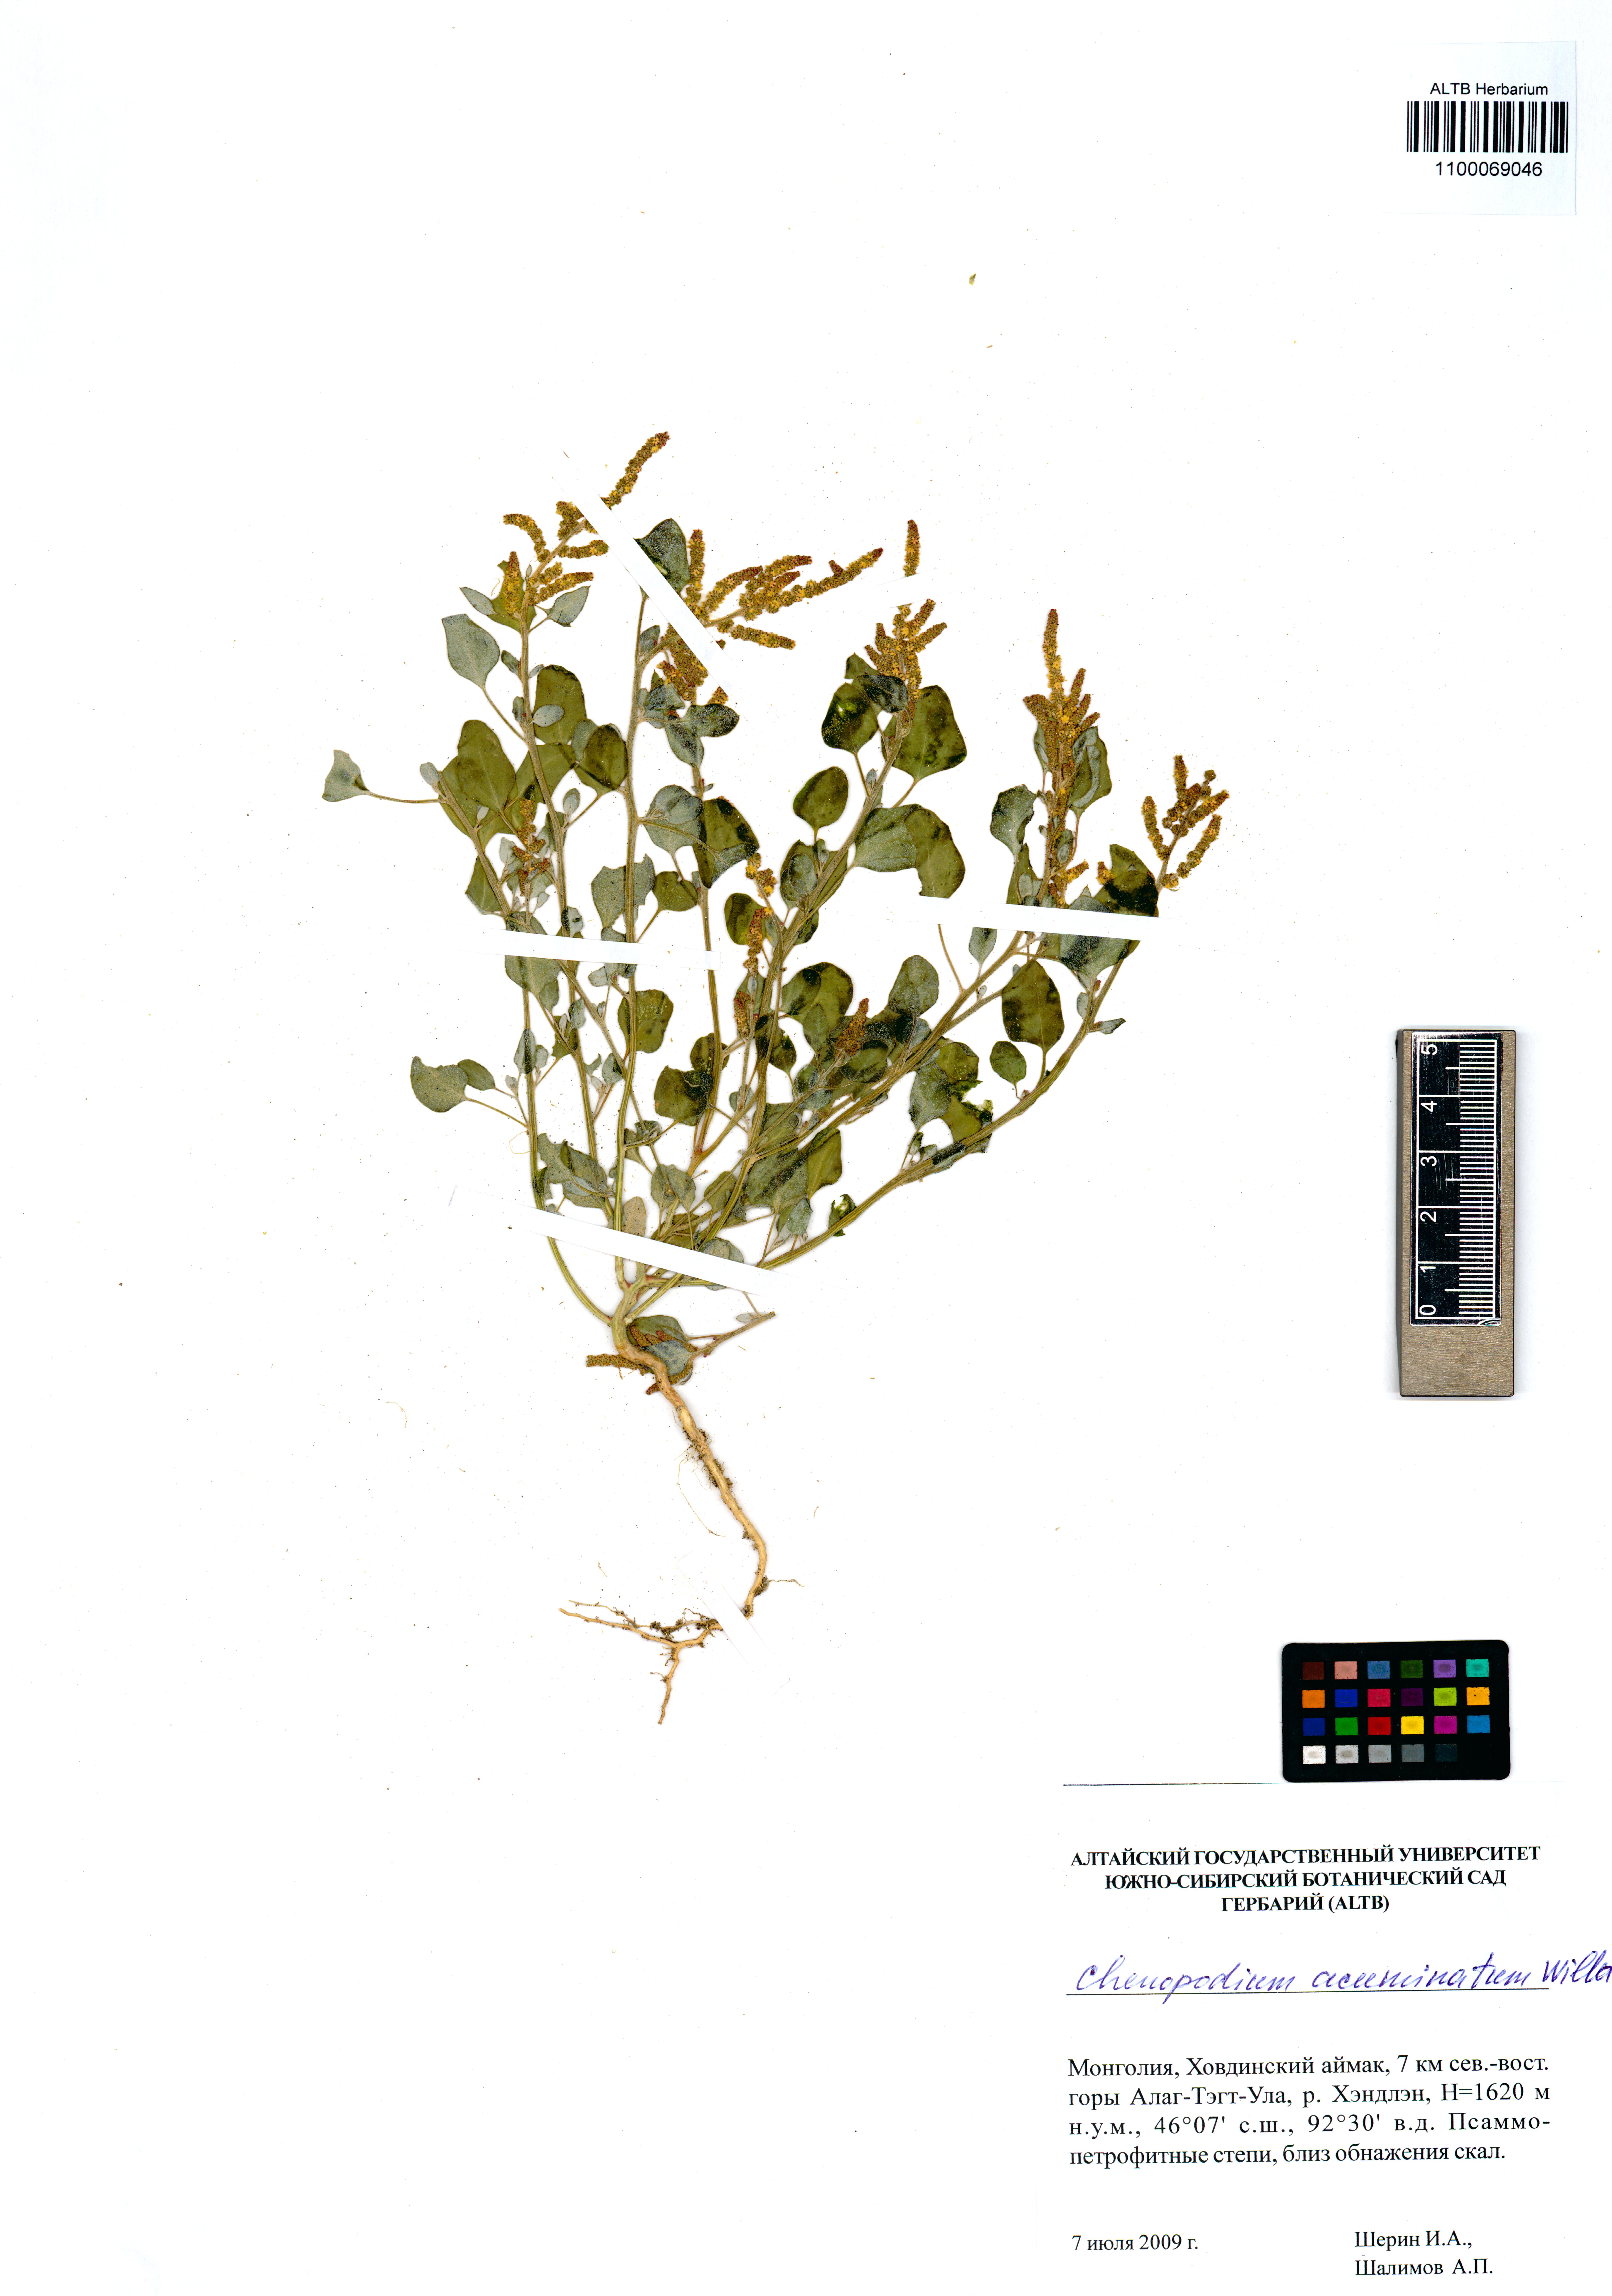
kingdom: Plantae
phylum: Tracheophyta
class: Magnoliopsida
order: Caryophyllales
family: Amaranthaceae
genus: Oxybasis
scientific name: Oxybasis rubra
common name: Red goosefoot
